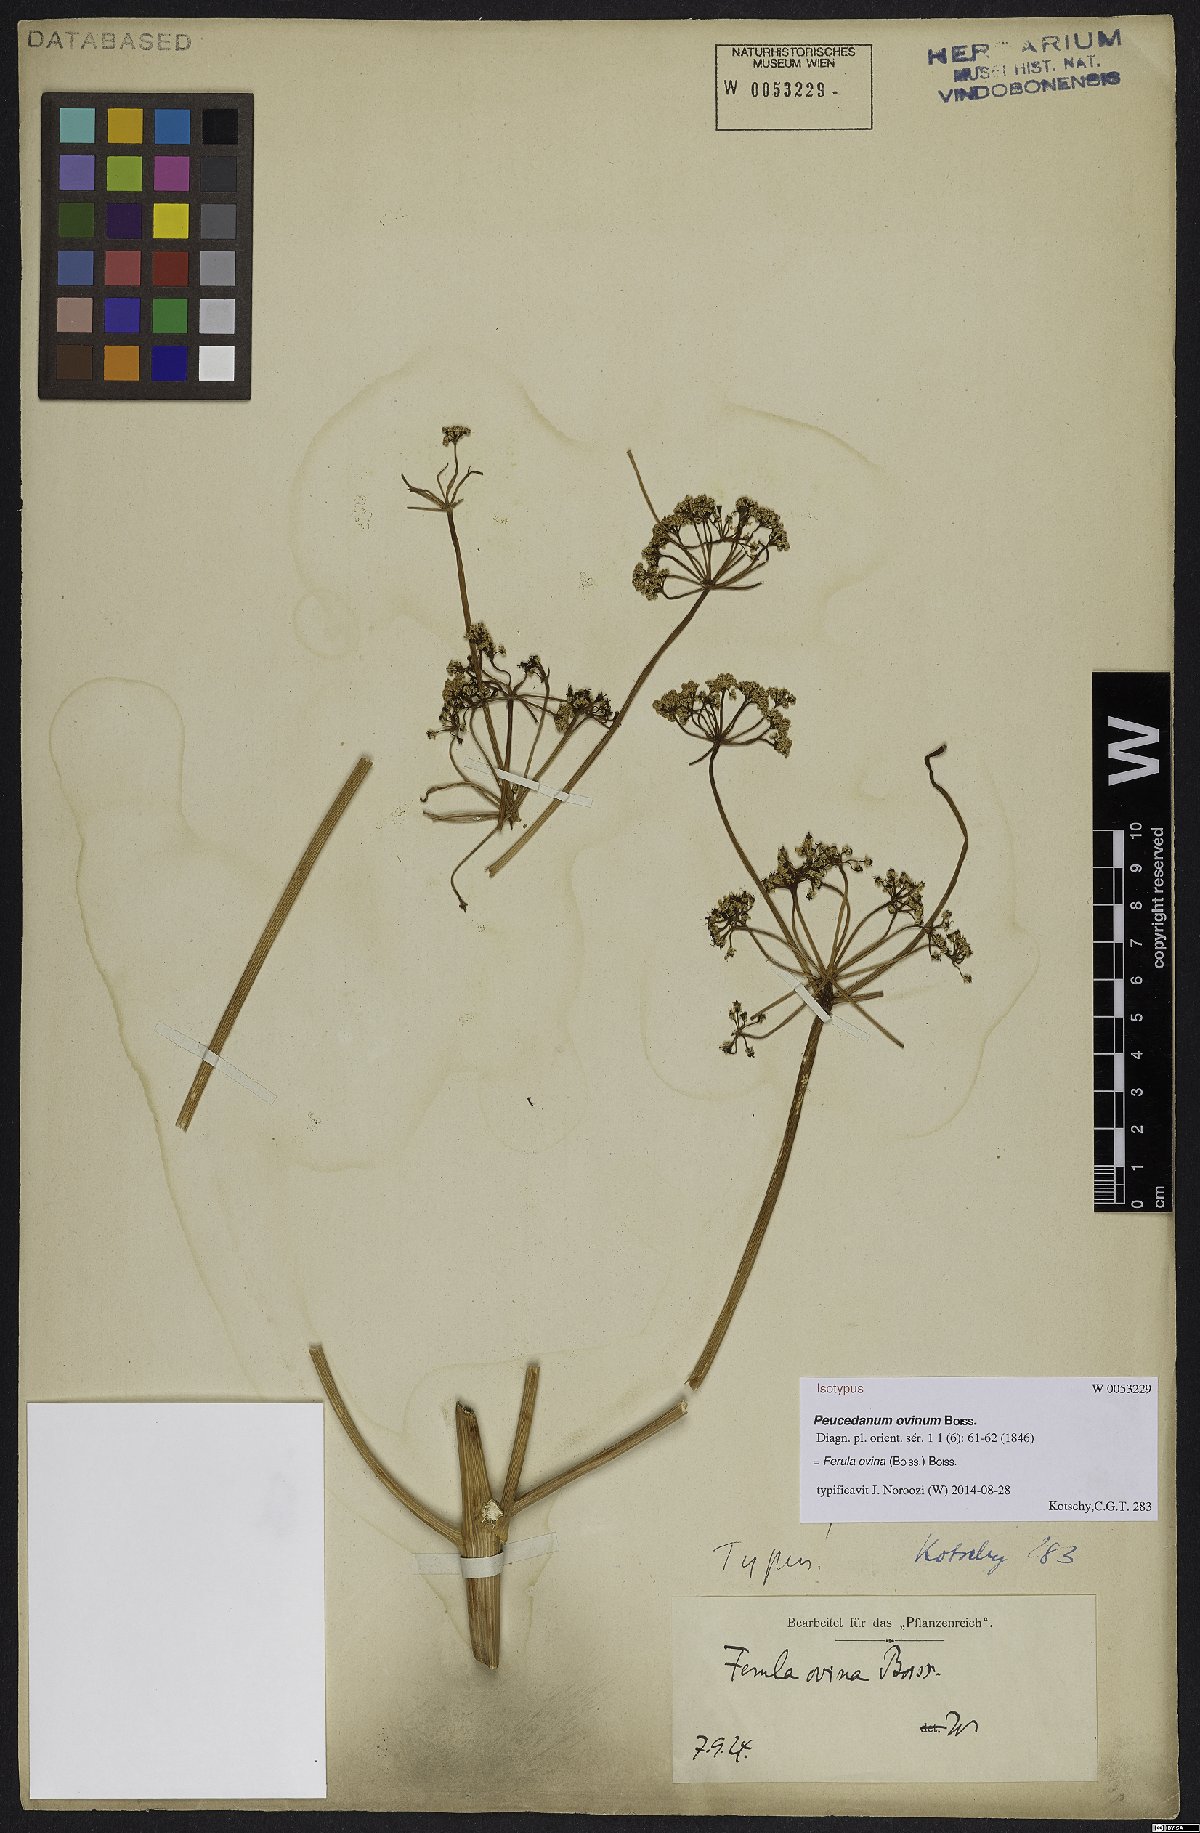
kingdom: Plantae
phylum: Tracheophyta
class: Magnoliopsida
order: Apiales
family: Apiaceae
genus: Ferula
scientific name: Ferula ovina
